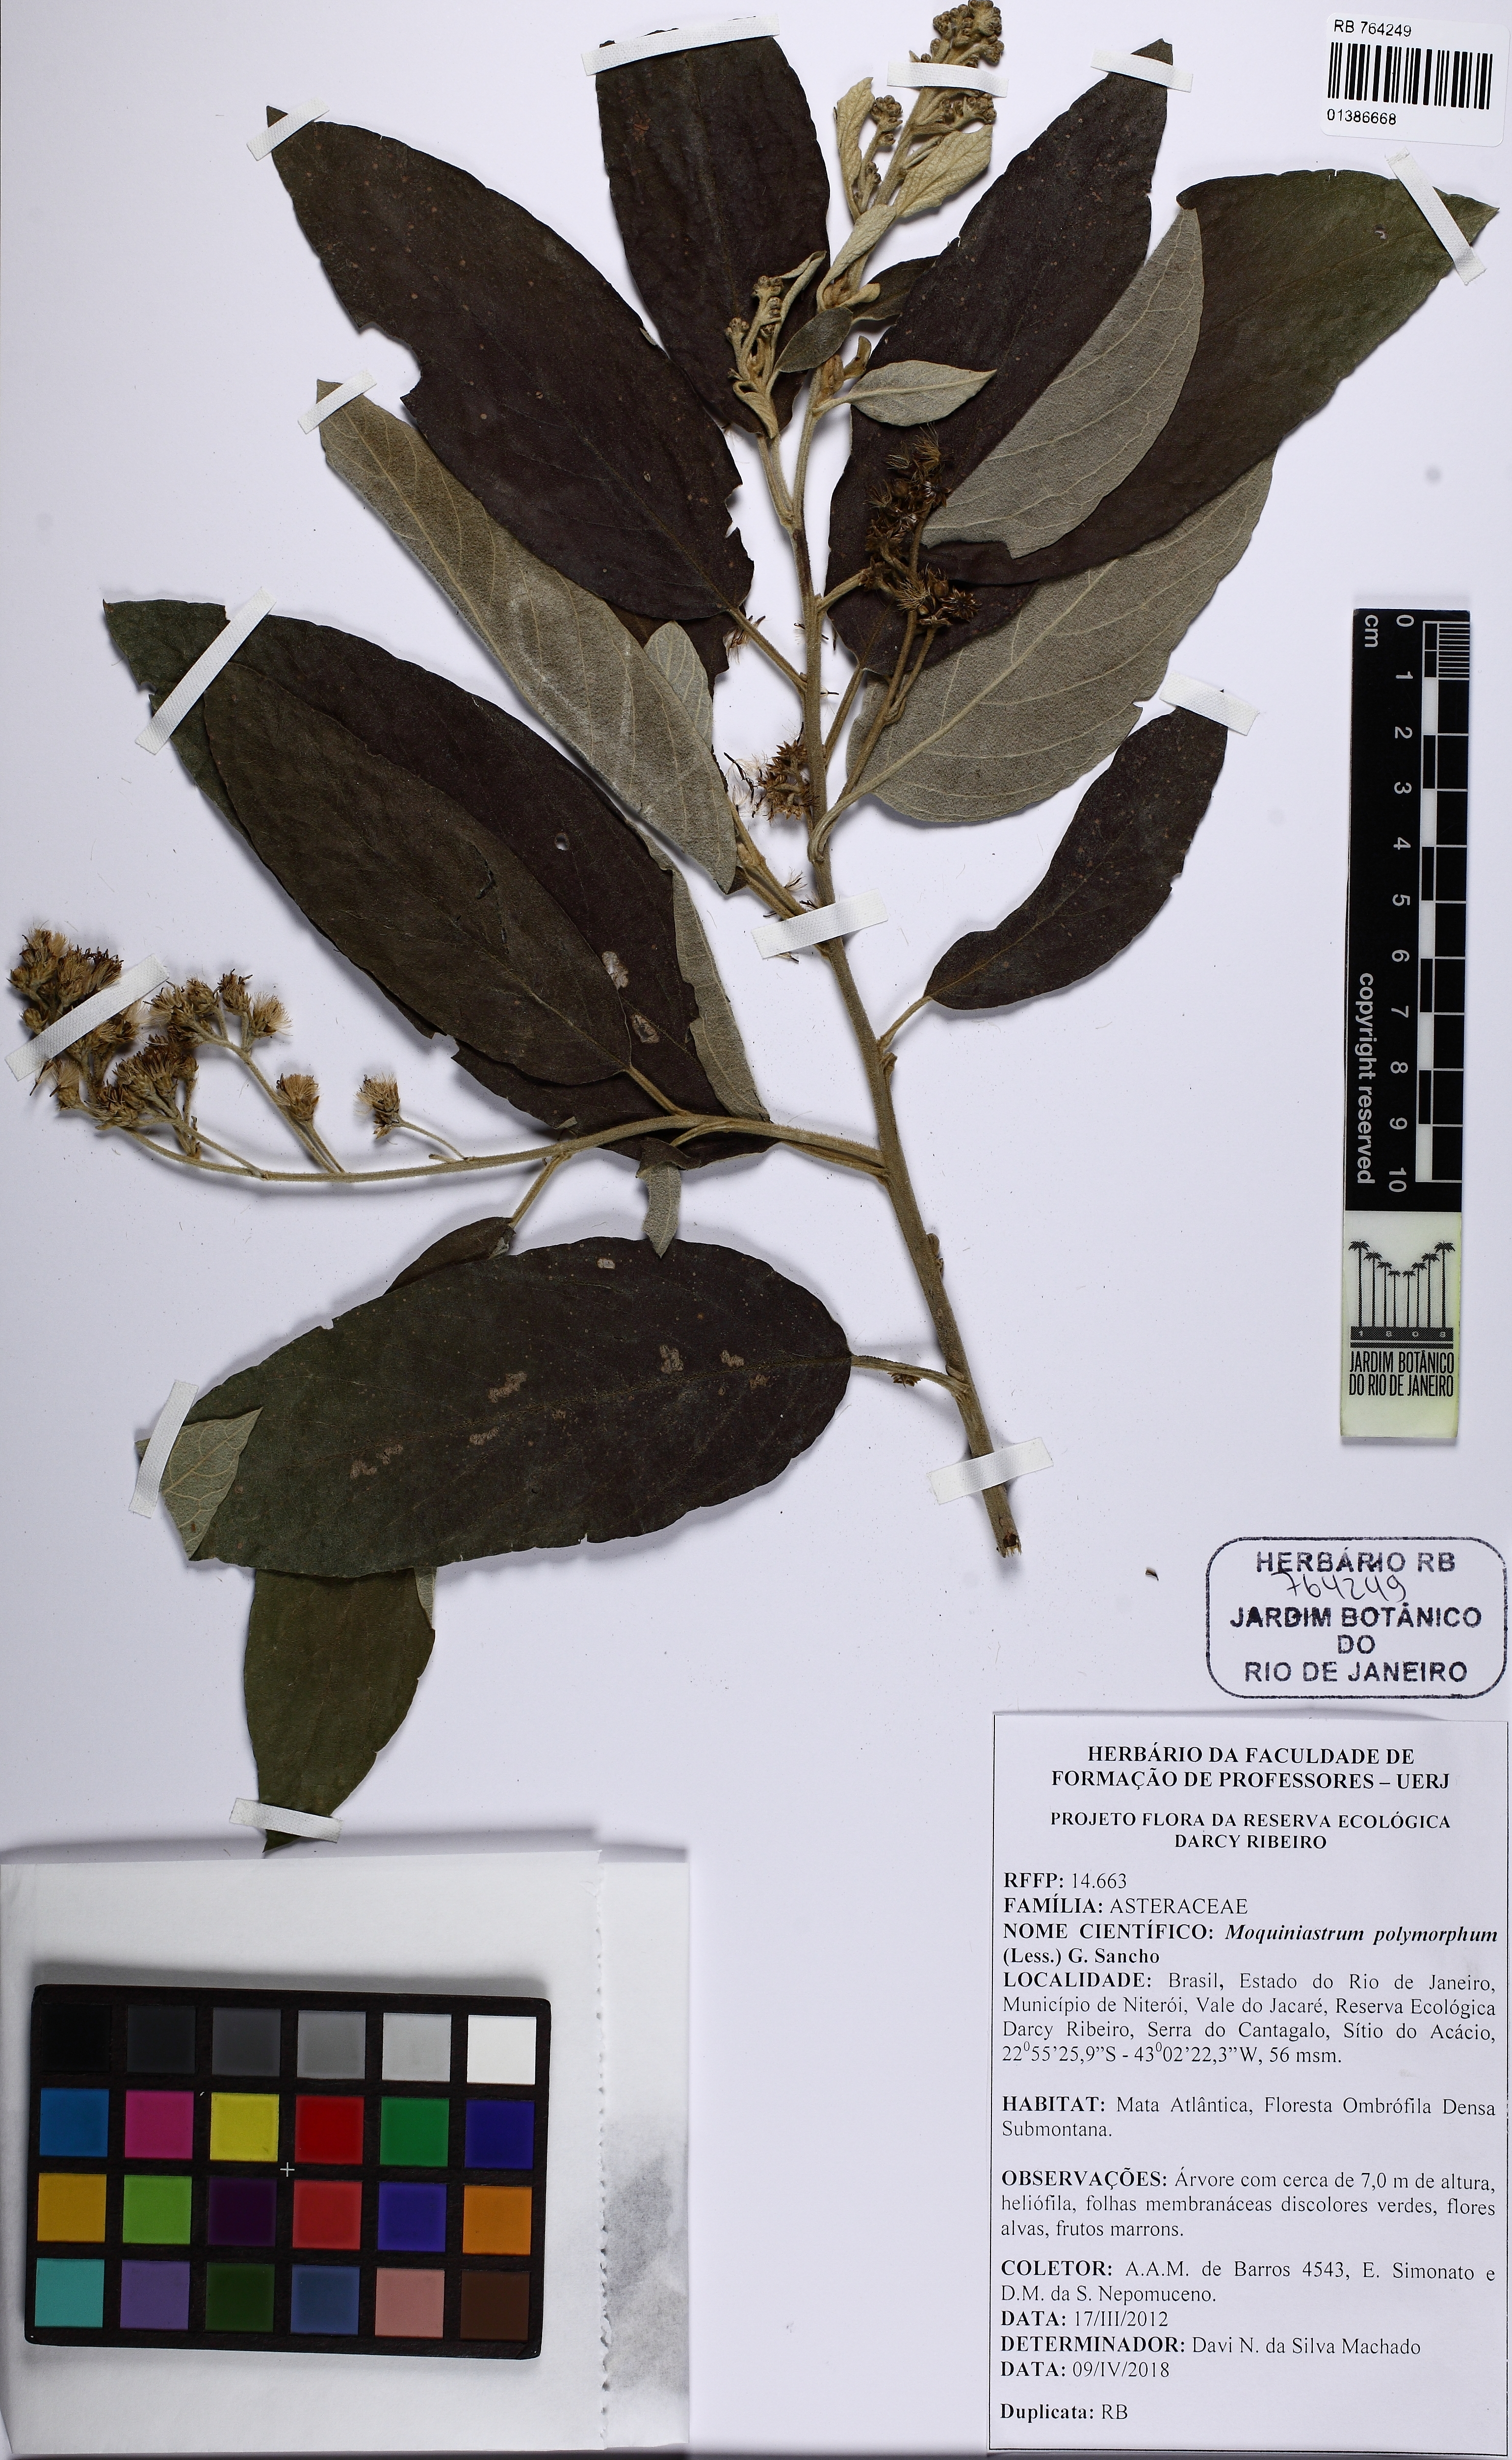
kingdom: Plantae
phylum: Tracheophyta
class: Magnoliopsida
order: Asterales
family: Asteraceae
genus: Moquiniastrum
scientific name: Moquiniastrum polymorphum
